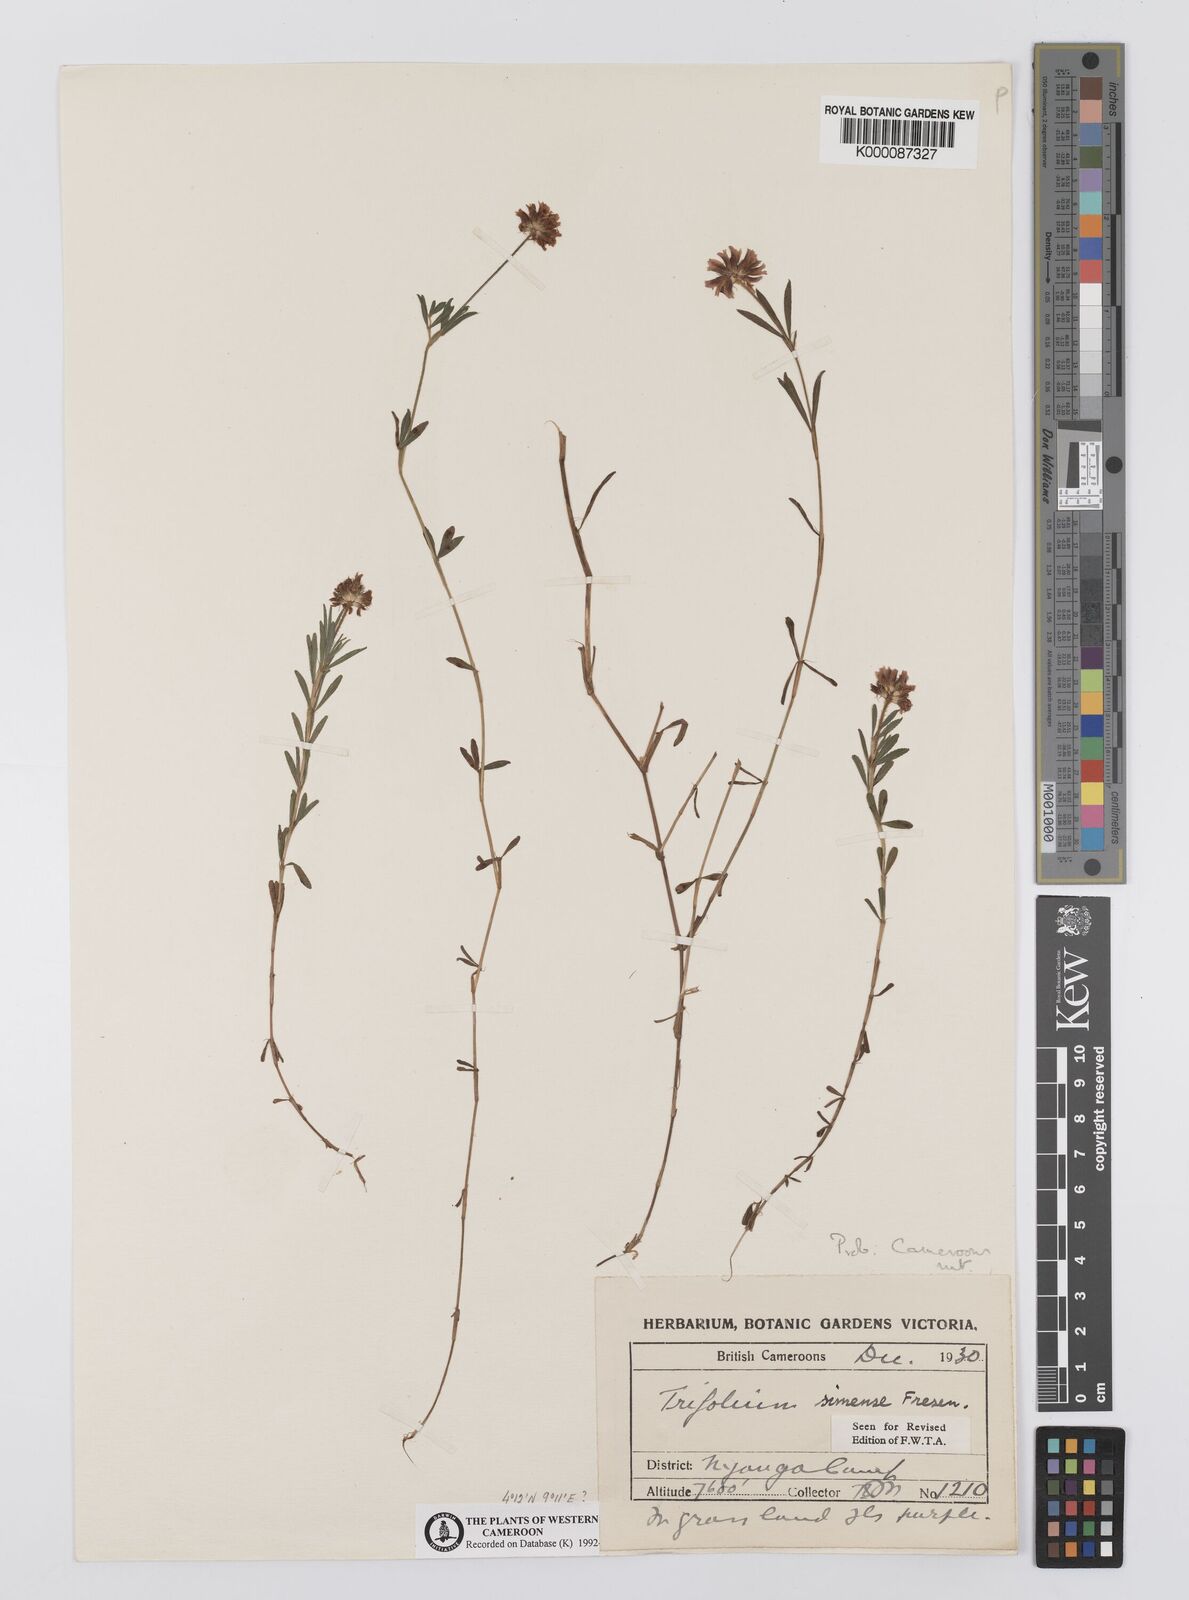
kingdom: Plantae
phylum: Tracheophyta
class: Magnoliopsida
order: Fabales
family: Fabaceae
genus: Trifolium
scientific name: Trifolium simense
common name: Simen clover
